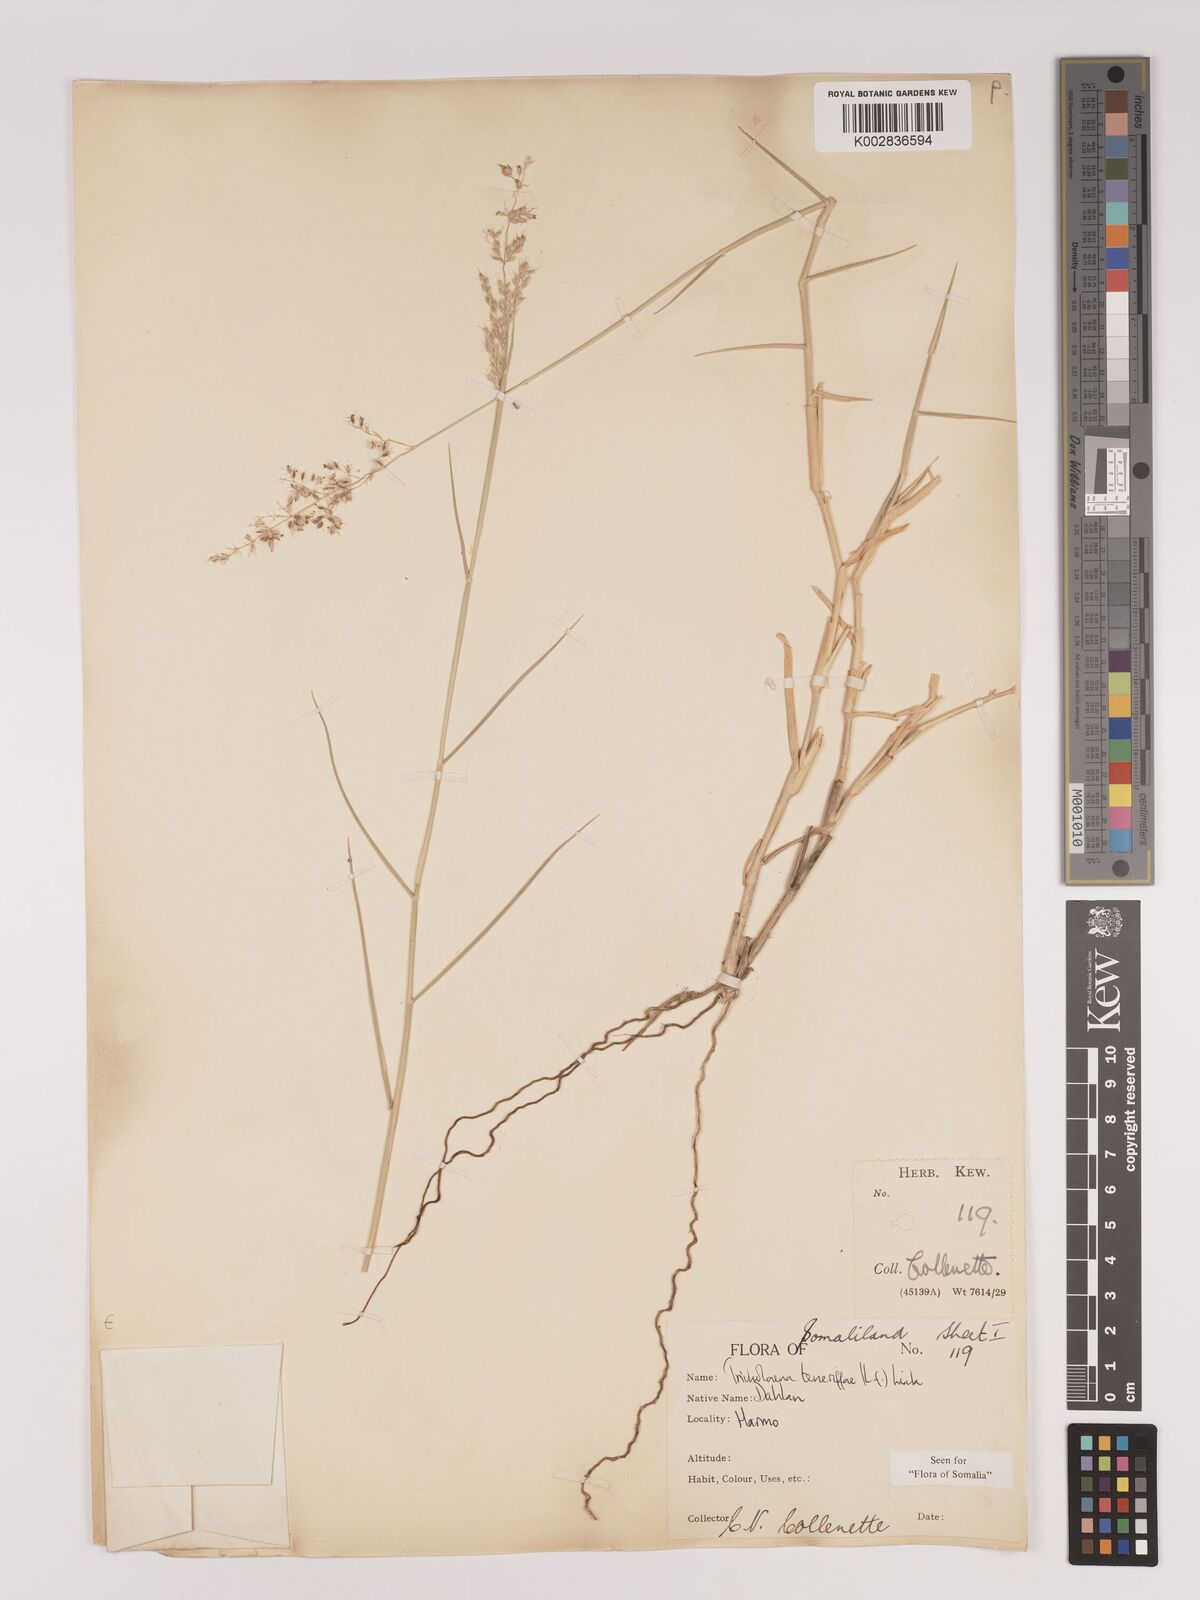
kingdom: Plantae
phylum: Tracheophyta
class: Liliopsida
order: Poales
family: Poaceae
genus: Tricholaena
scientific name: Tricholaena teneriffae
